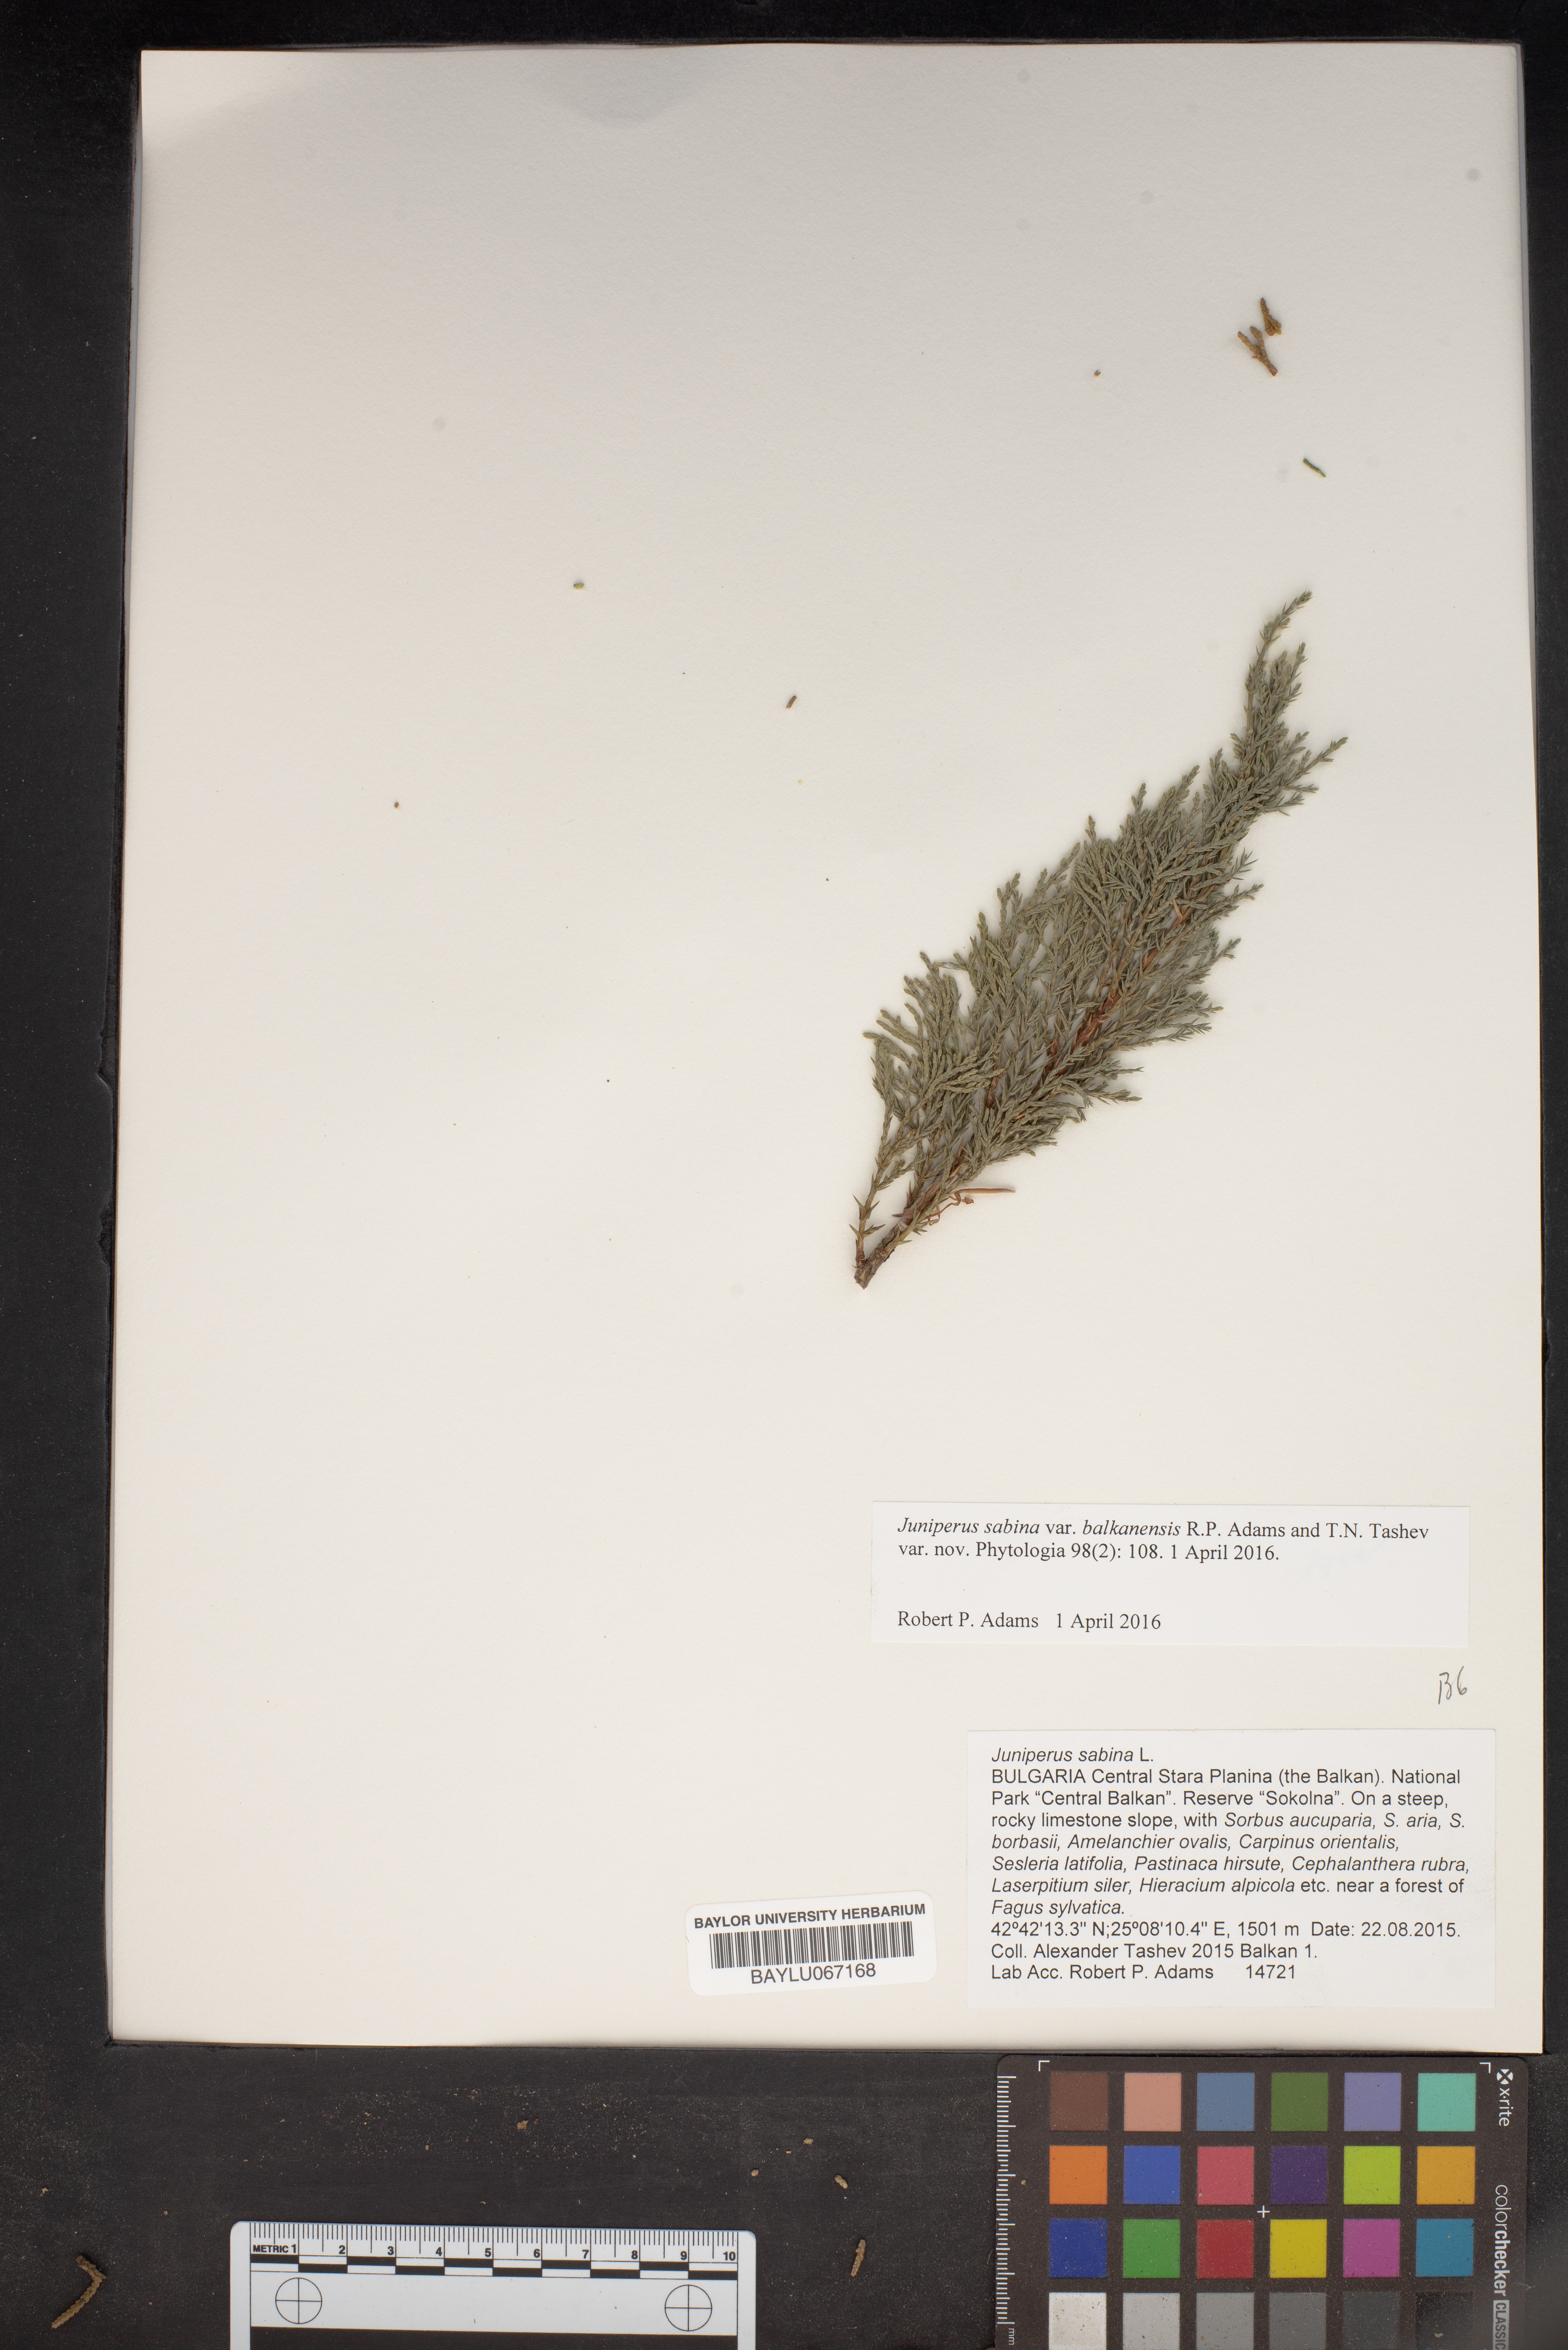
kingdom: Plantae
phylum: Tracheophyta
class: Pinopsida
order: Pinales
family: Cupressaceae
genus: Juniperus
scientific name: Juniperus sabina
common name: Savin
